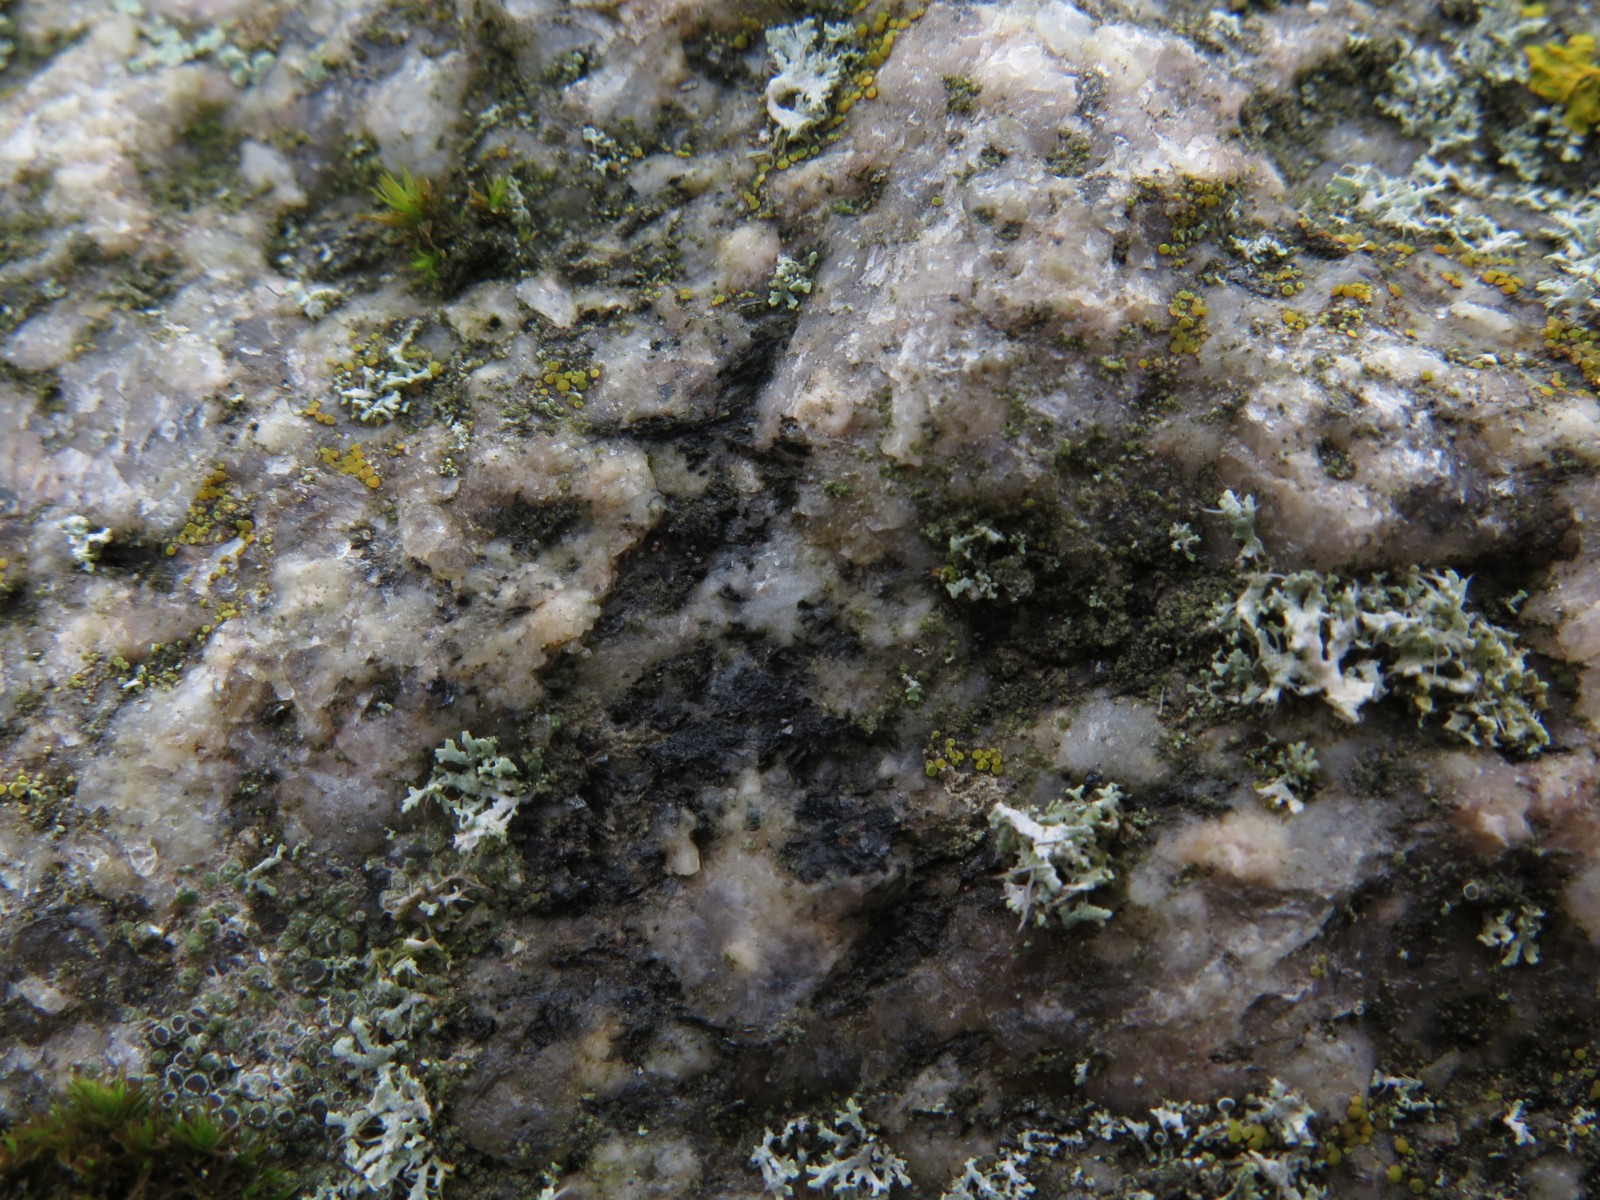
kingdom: Fungi
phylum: Ascomycota
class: Lecanoromycetes
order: Acarosporales
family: Acarosporaceae
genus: Acarospora
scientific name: Acarospora privigna
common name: sort foldekantlav
